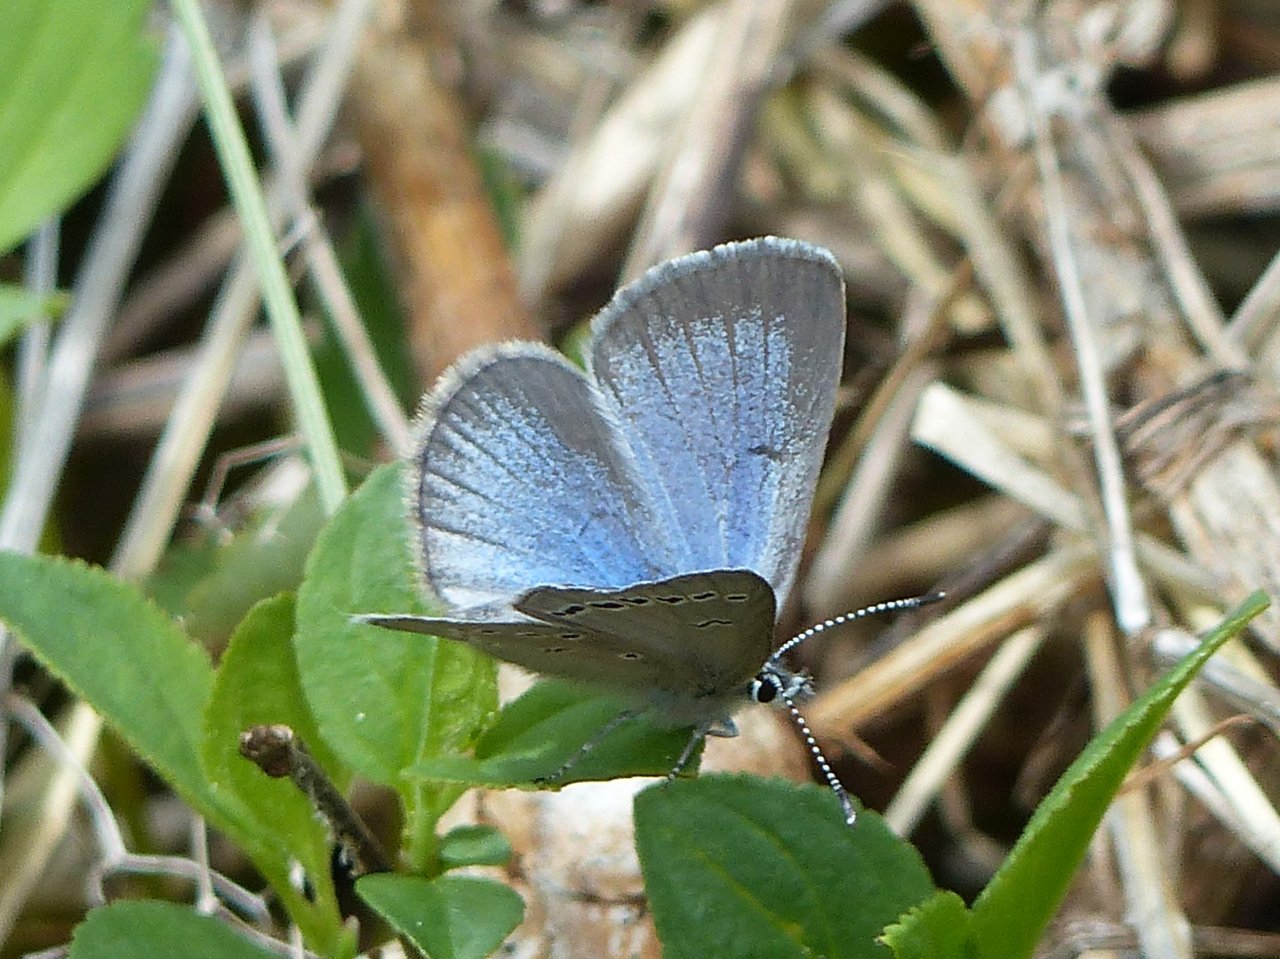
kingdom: Animalia
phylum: Arthropoda
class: Insecta
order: Lepidoptera
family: Lycaenidae
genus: Glaucopsyche
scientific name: Glaucopsyche lygdamus
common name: Silvery Blue
